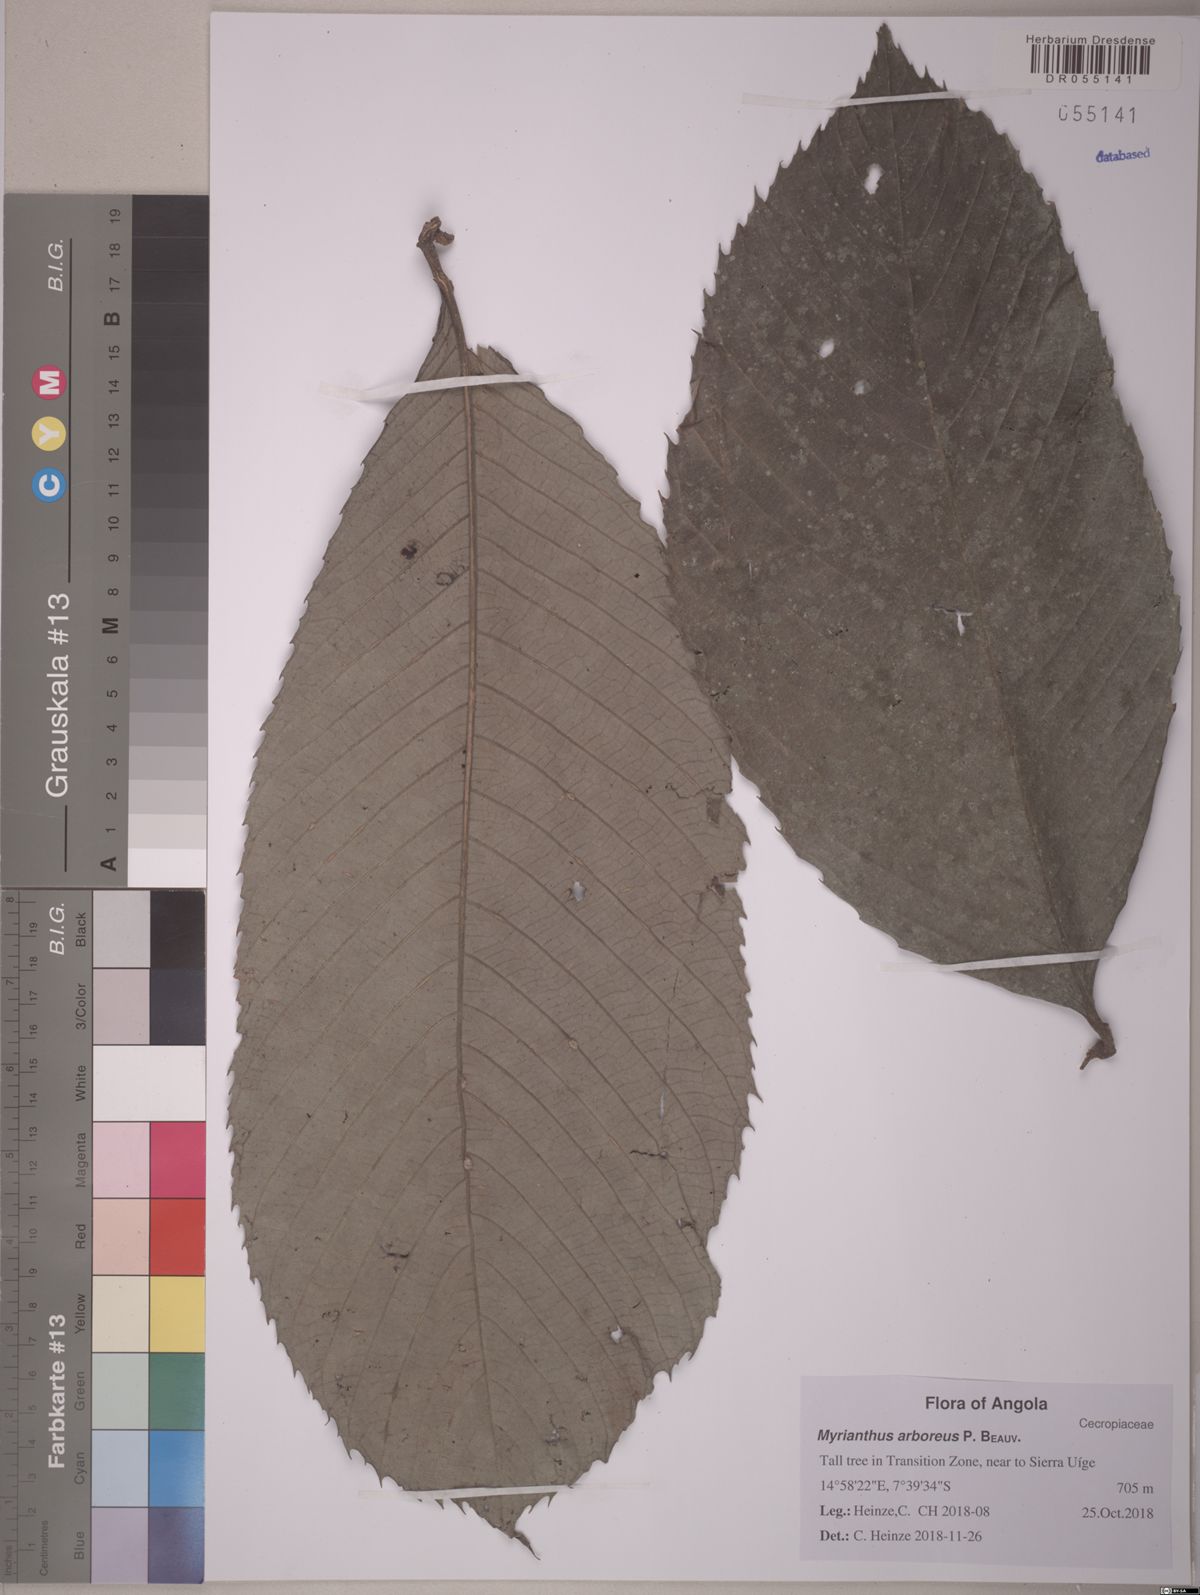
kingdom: Plantae
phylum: Tracheophyta
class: Magnoliopsida
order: Rosales
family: Urticaceae
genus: Myrianthus
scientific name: Myrianthus arboreus
